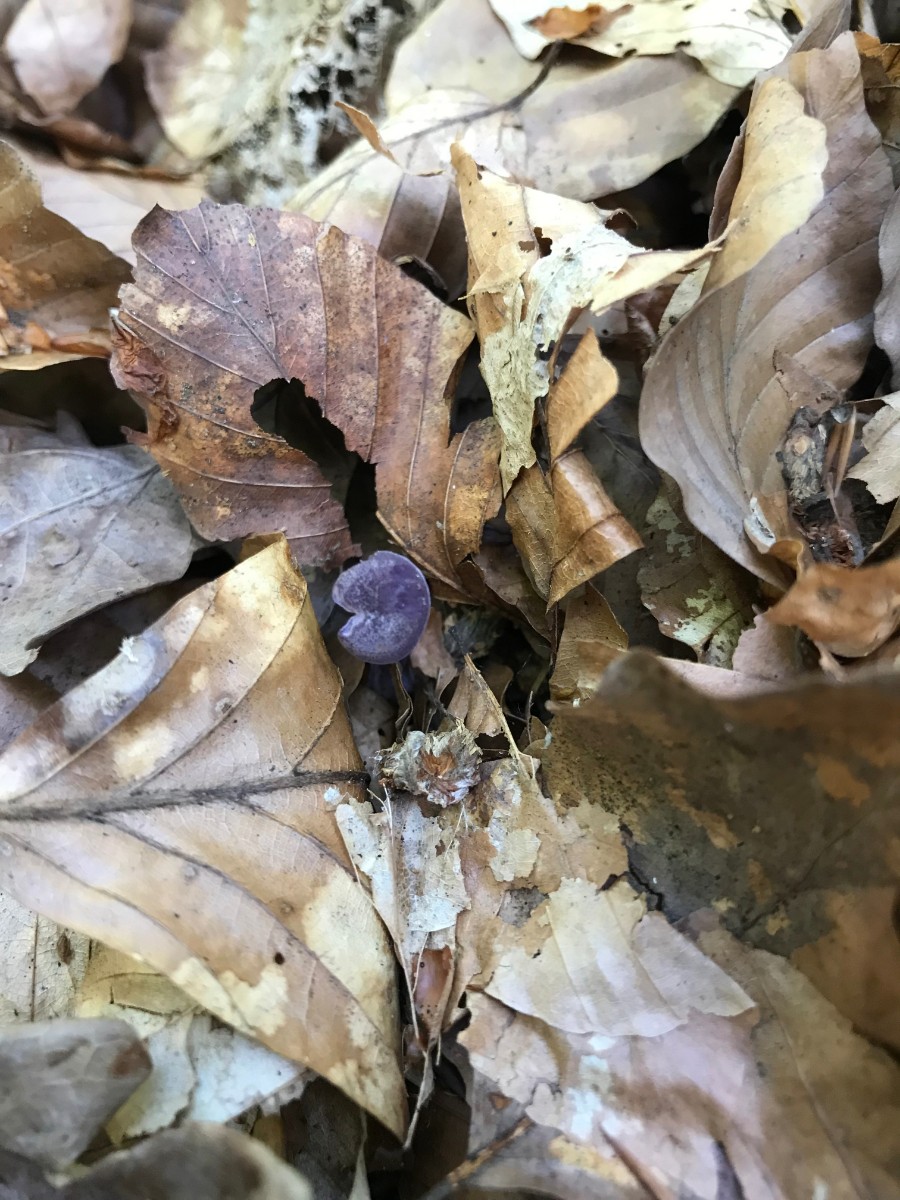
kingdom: Fungi
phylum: Basidiomycota
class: Agaricomycetes
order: Agaricales
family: Hydnangiaceae
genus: Laccaria
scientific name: Laccaria amethystina
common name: violet ametysthat
